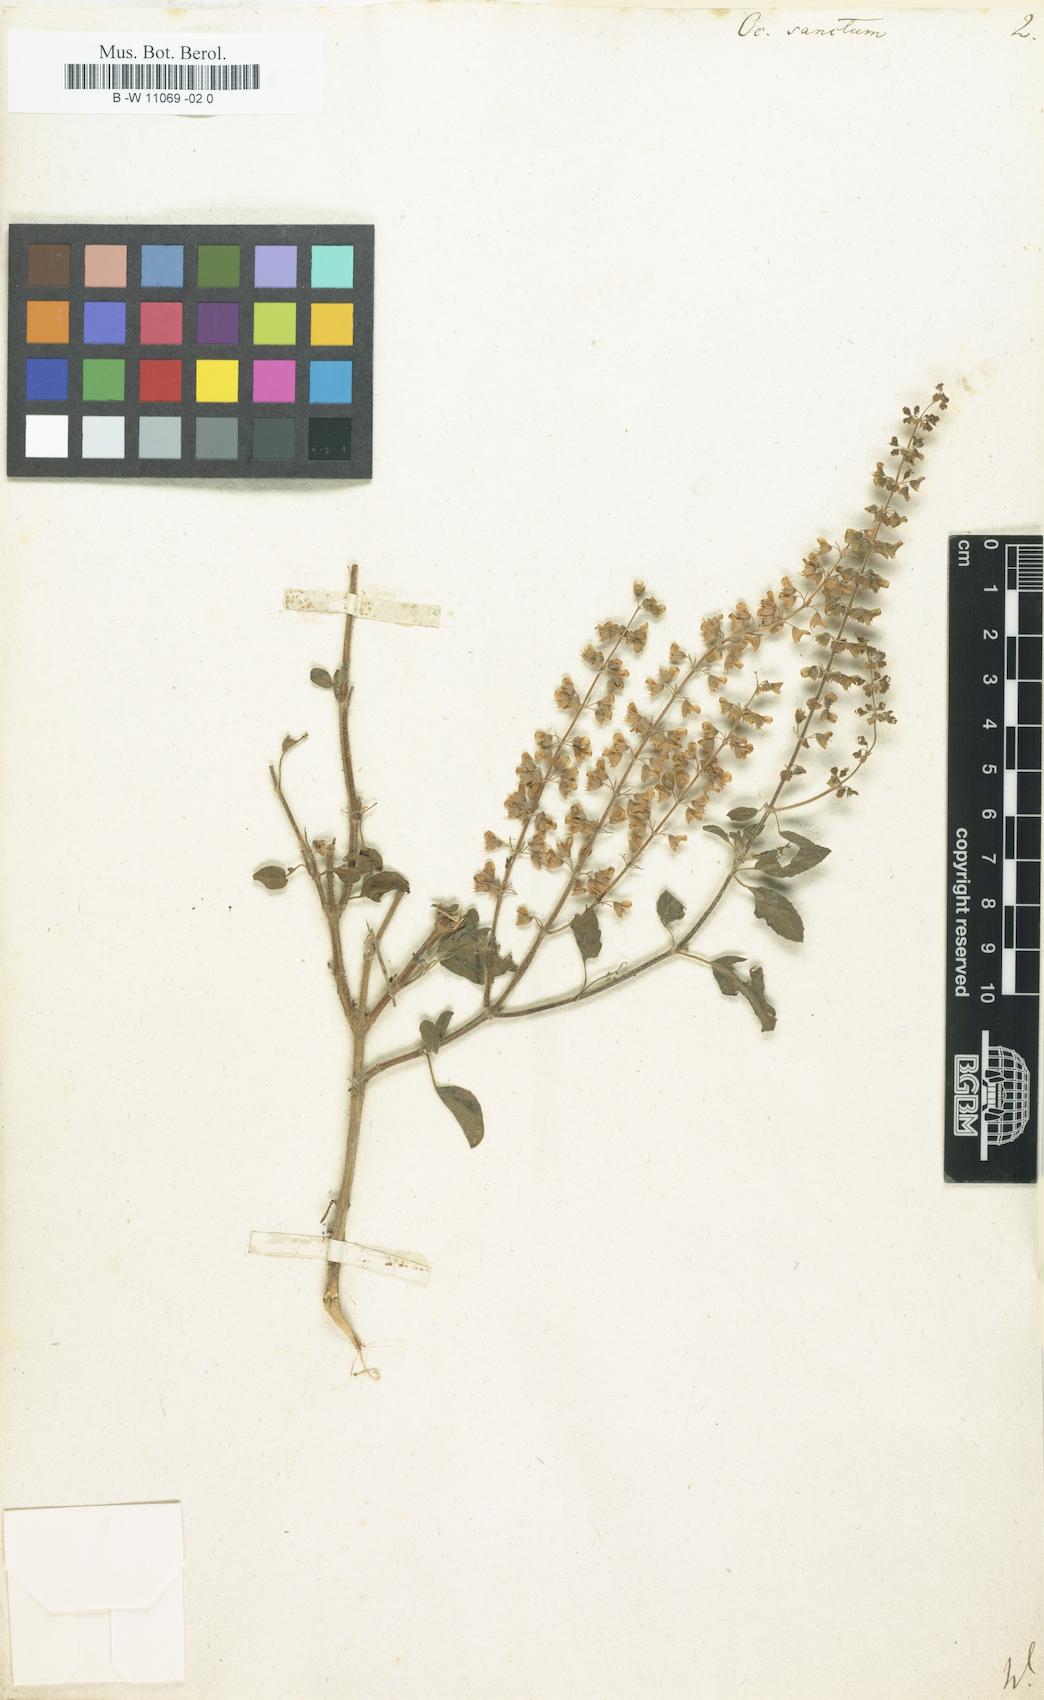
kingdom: Plantae
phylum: Tracheophyta
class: Magnoliopsida
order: Lamiales
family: Lamiaceae
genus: Ocimum
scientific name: Ocimum tenuiflorum
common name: Sacred basil
